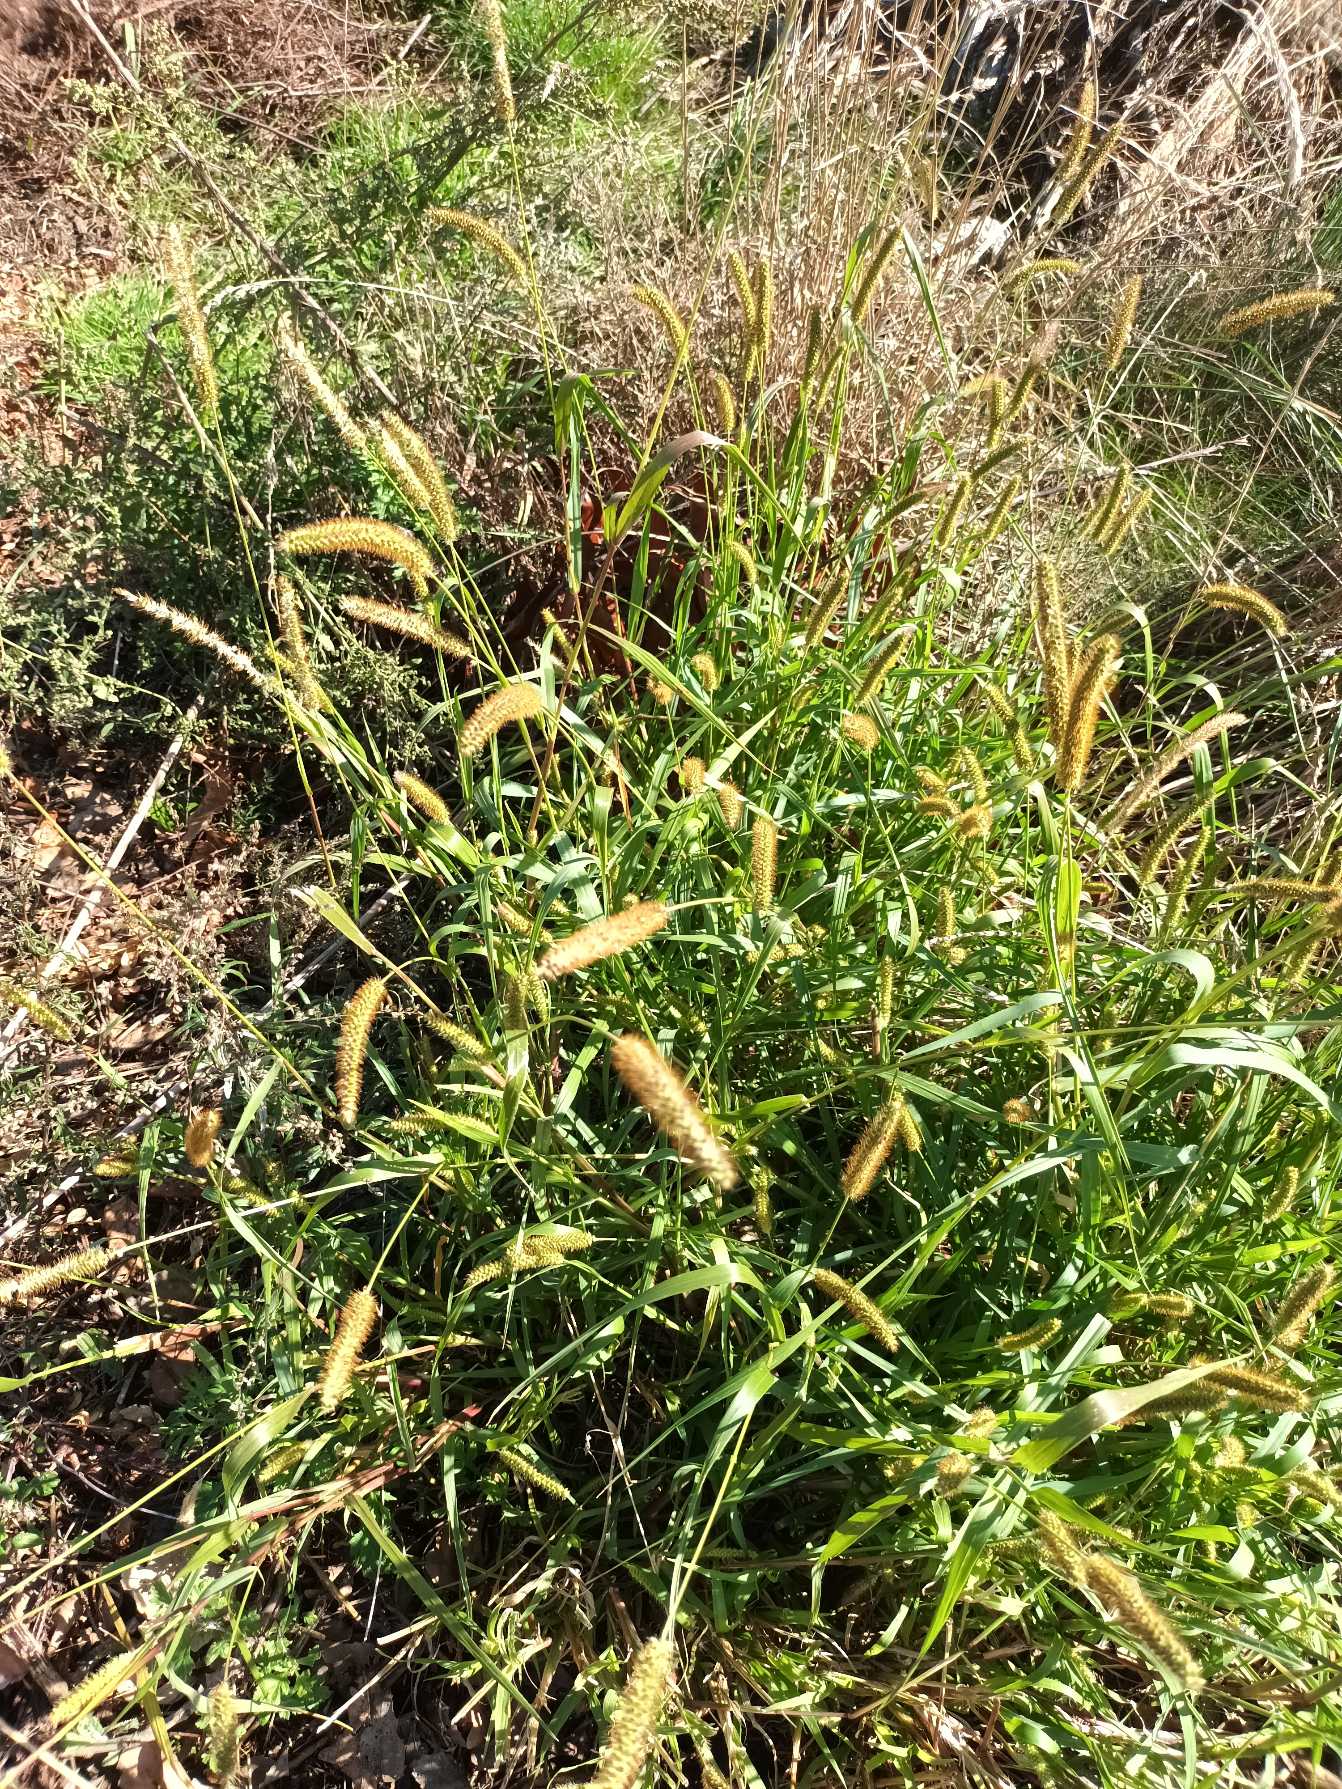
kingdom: Plantae
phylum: Tracheophyta
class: Liliopsida
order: Poales
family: Poaceae
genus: Setaria
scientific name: Setaria pumila
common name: Blågrøn skærmaks
